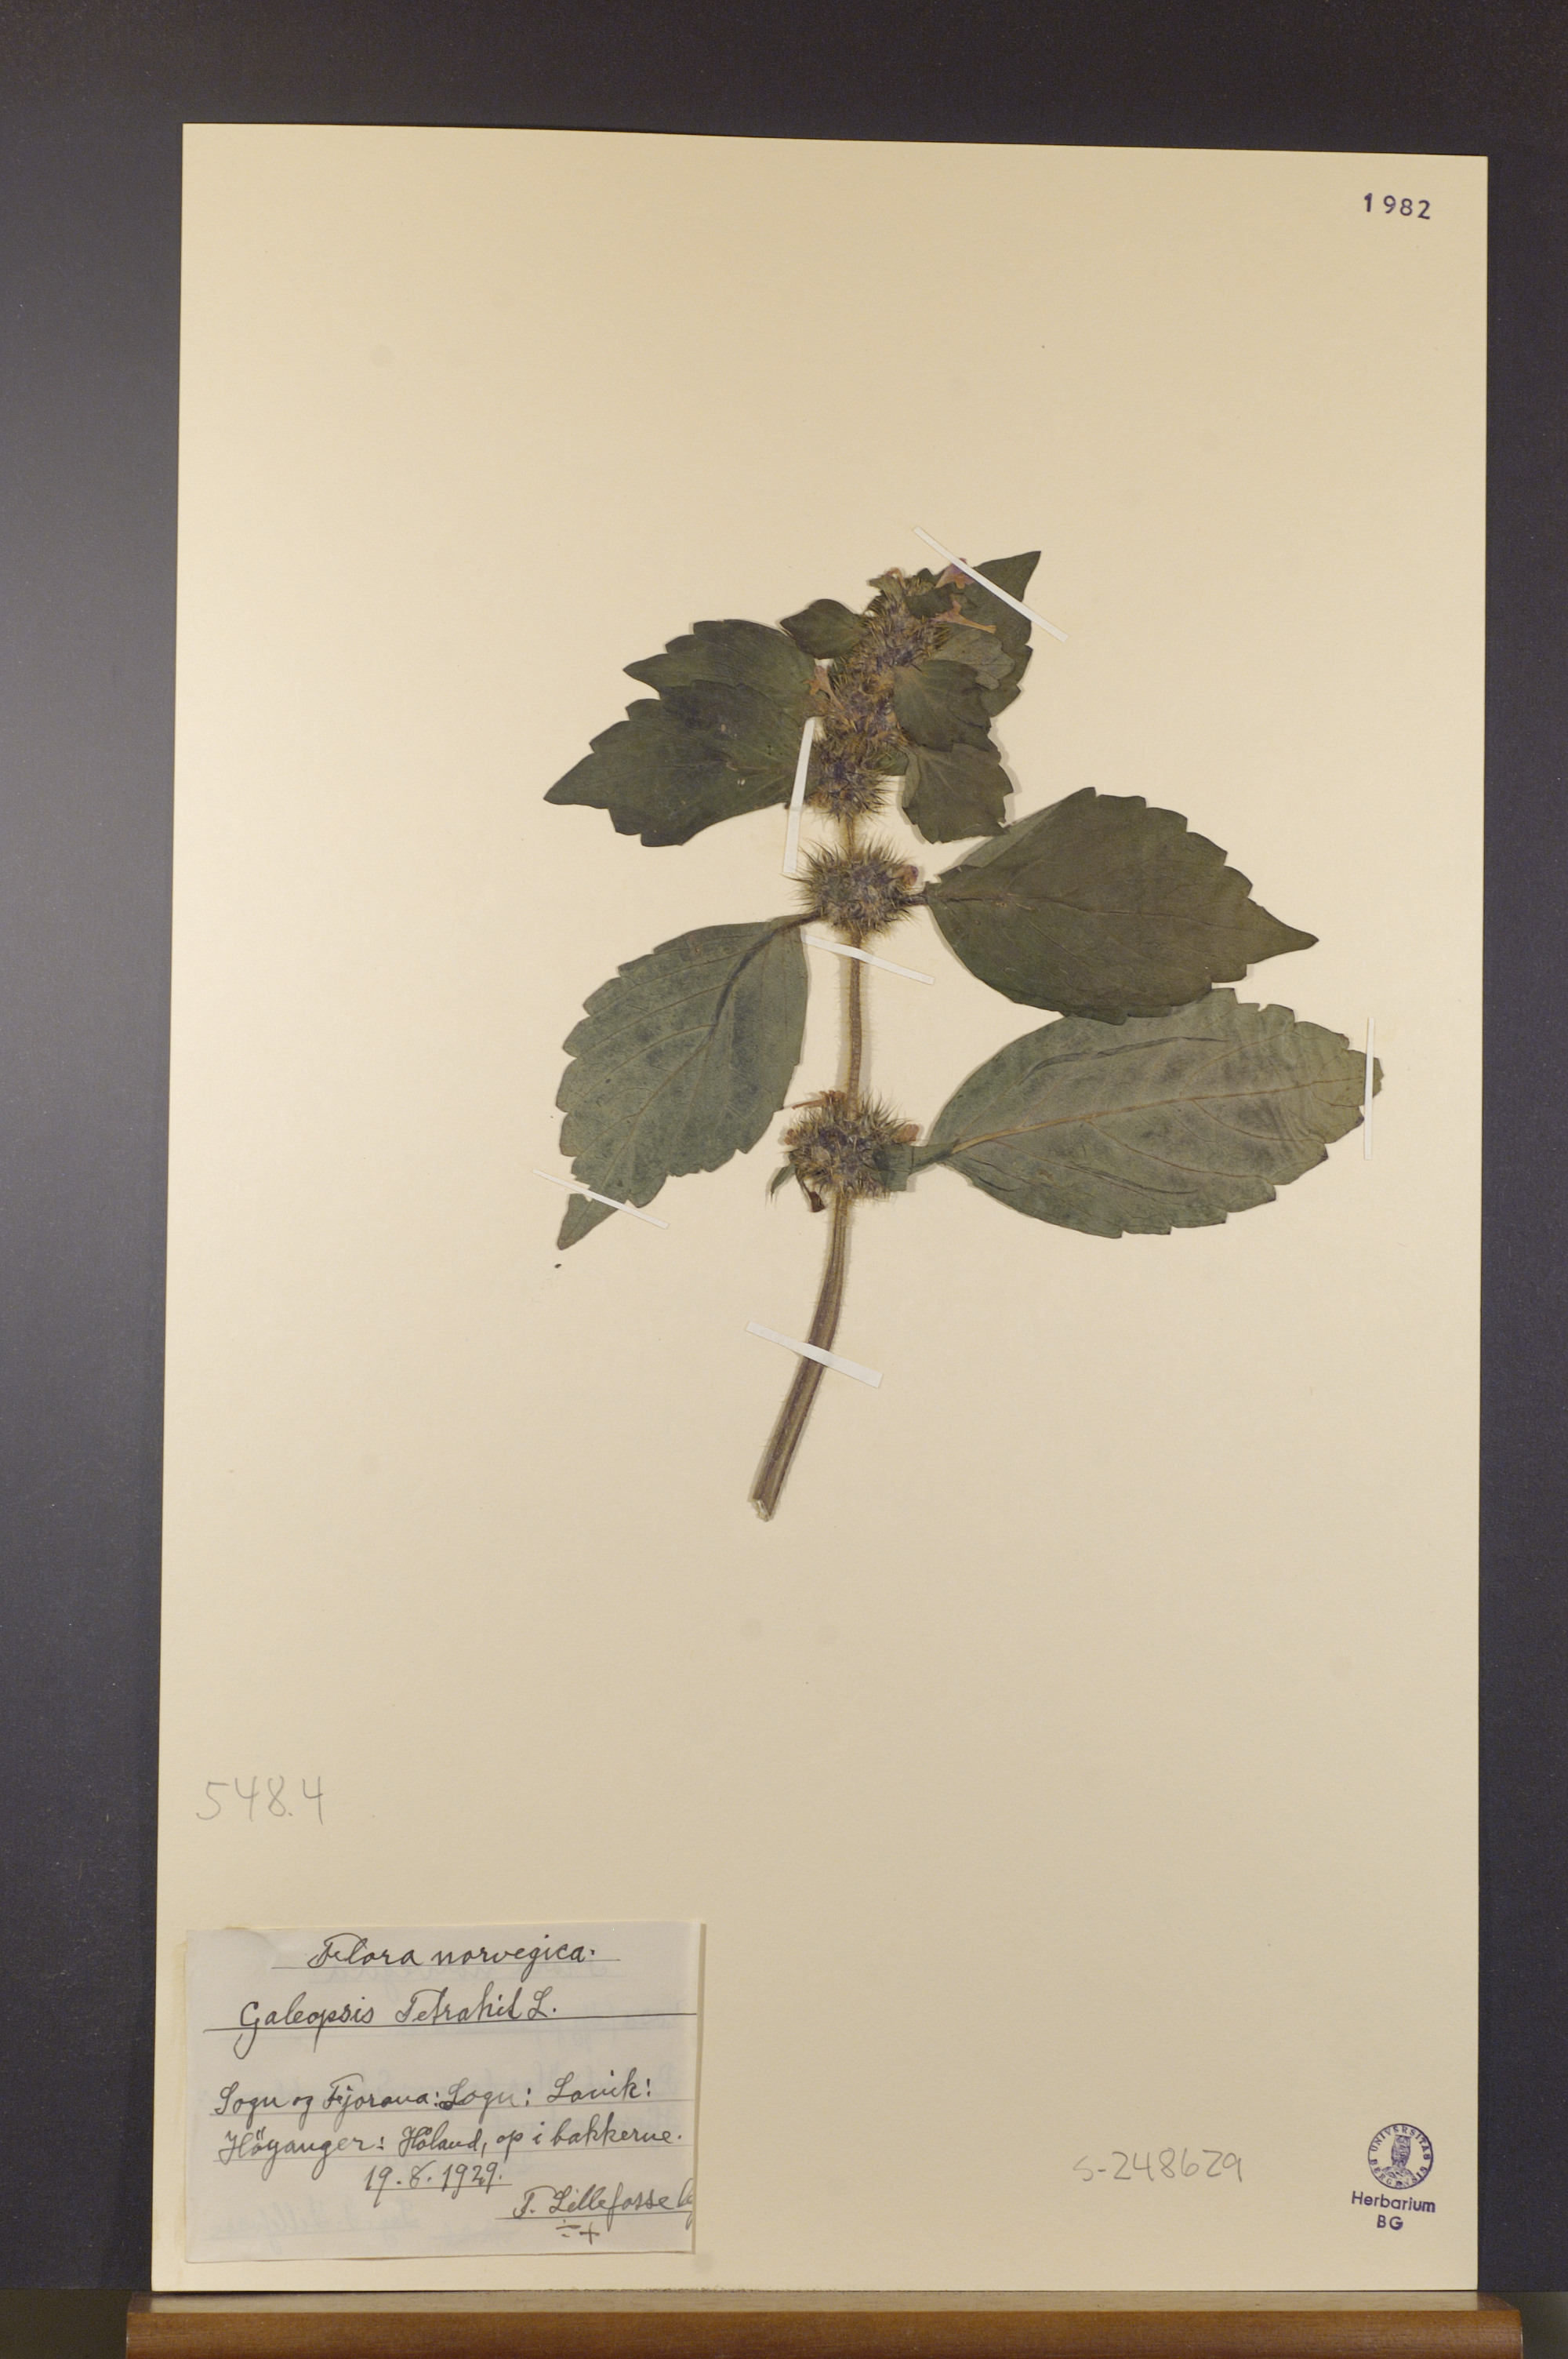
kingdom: Plantae
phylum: Tracheophyta
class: Magnoliopsida
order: Lamiales
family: Lamiaceae
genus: Galeopsis
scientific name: Galeopsis tetrahit
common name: Common hemp-nettle
